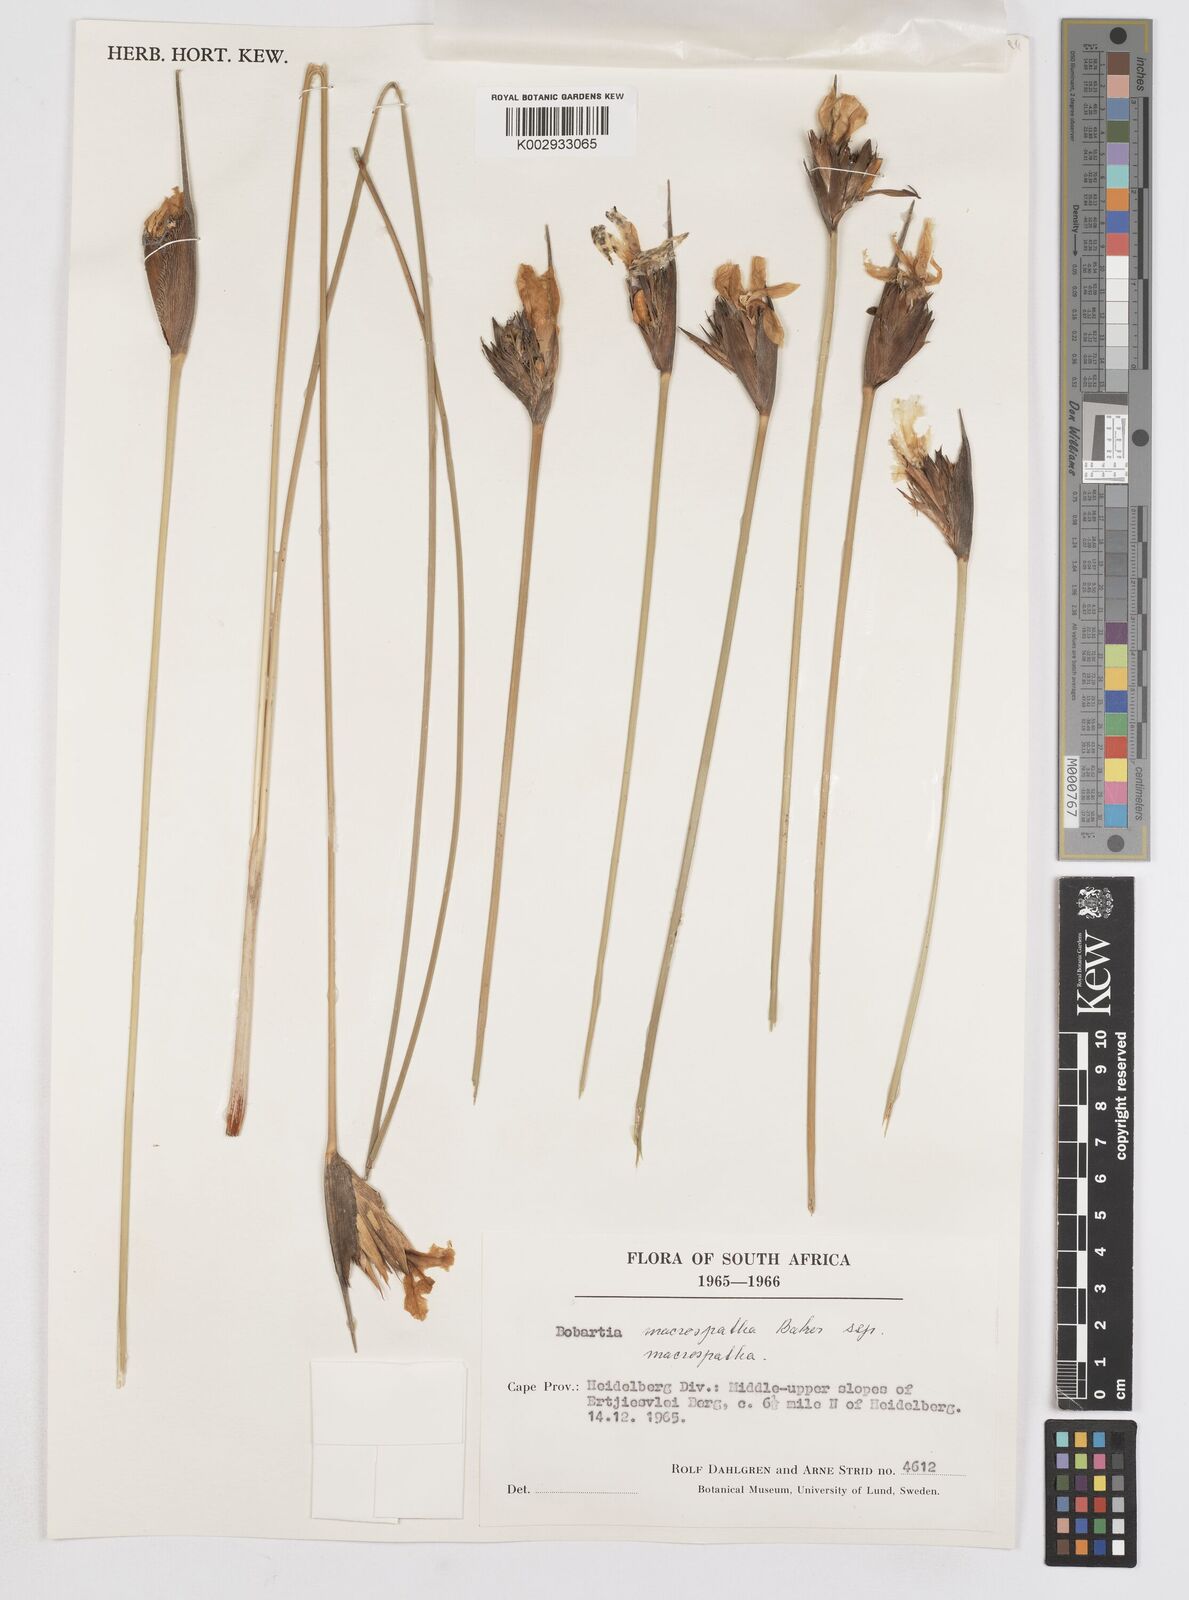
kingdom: Plantae
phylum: Tracheophyta
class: Liliopsida
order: Asparagales
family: Iridaceae
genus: Bobartia
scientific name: Bobartia macrospatha
